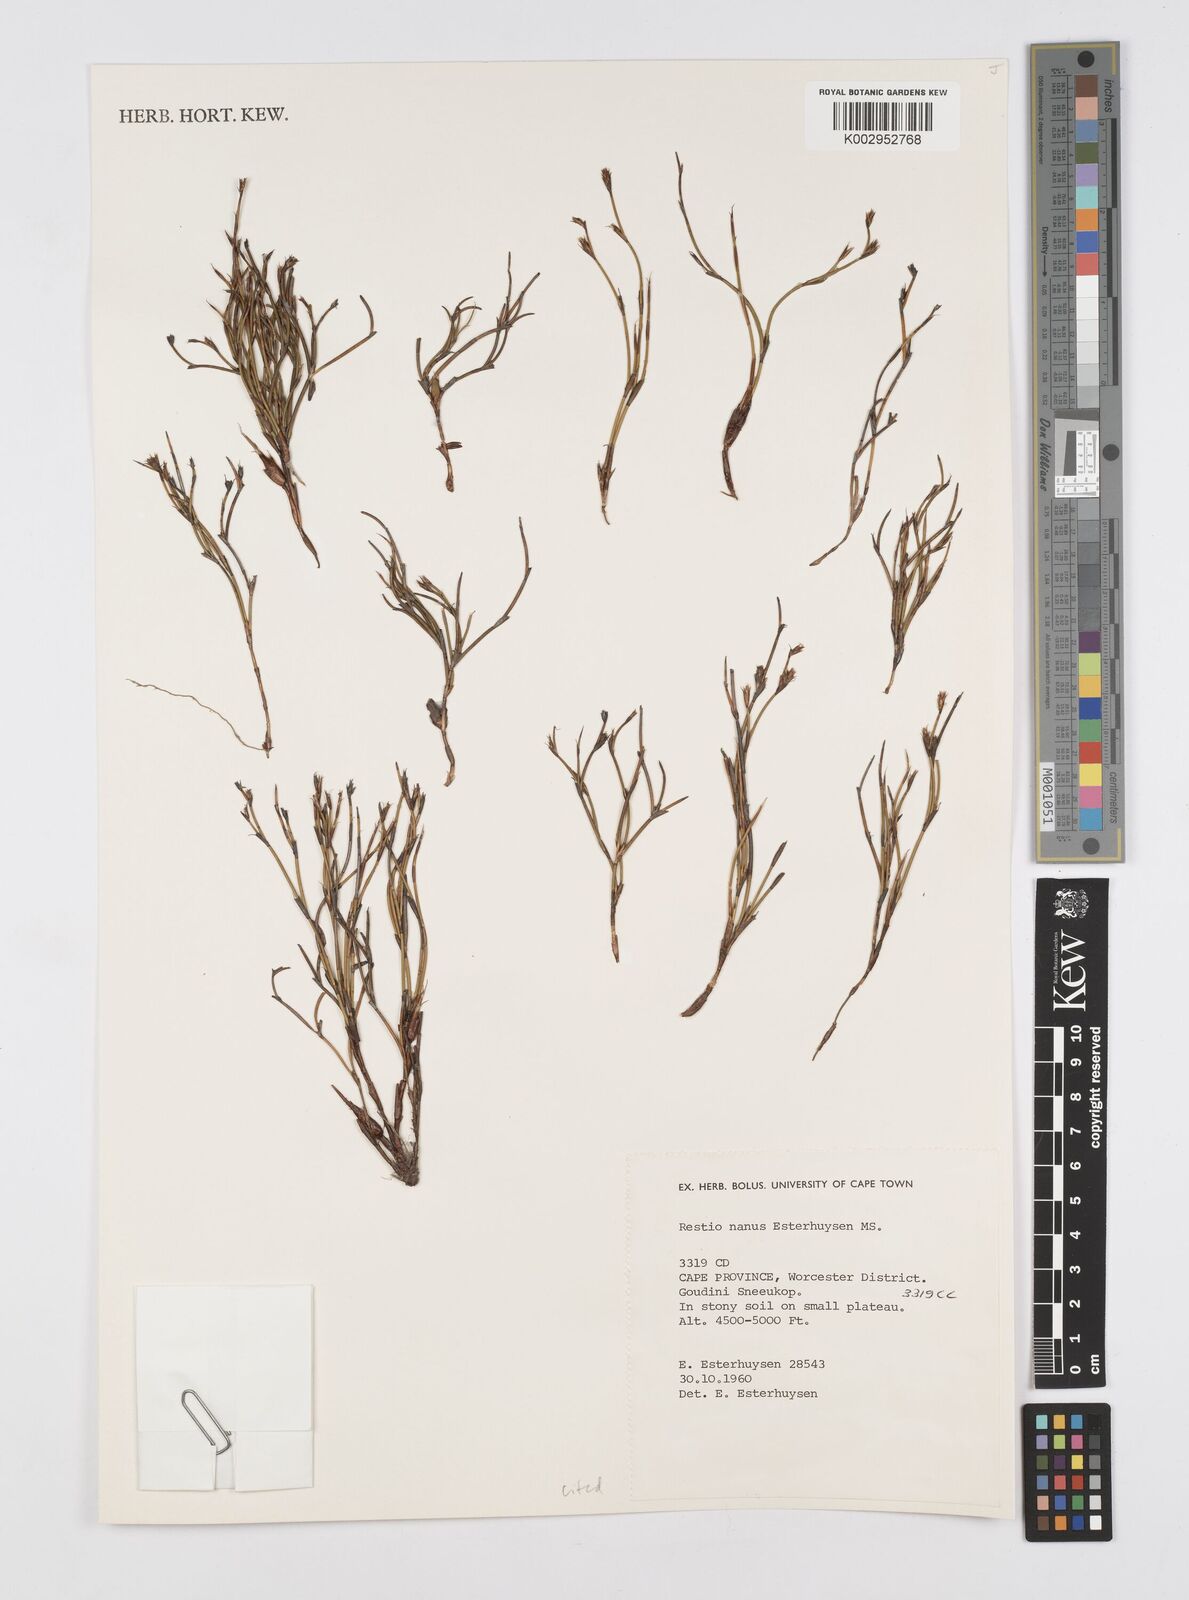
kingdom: Plantae
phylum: Tracheophyta
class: Liliopsida
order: Poales
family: Restionaceae
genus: Restio
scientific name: Restio nanus
